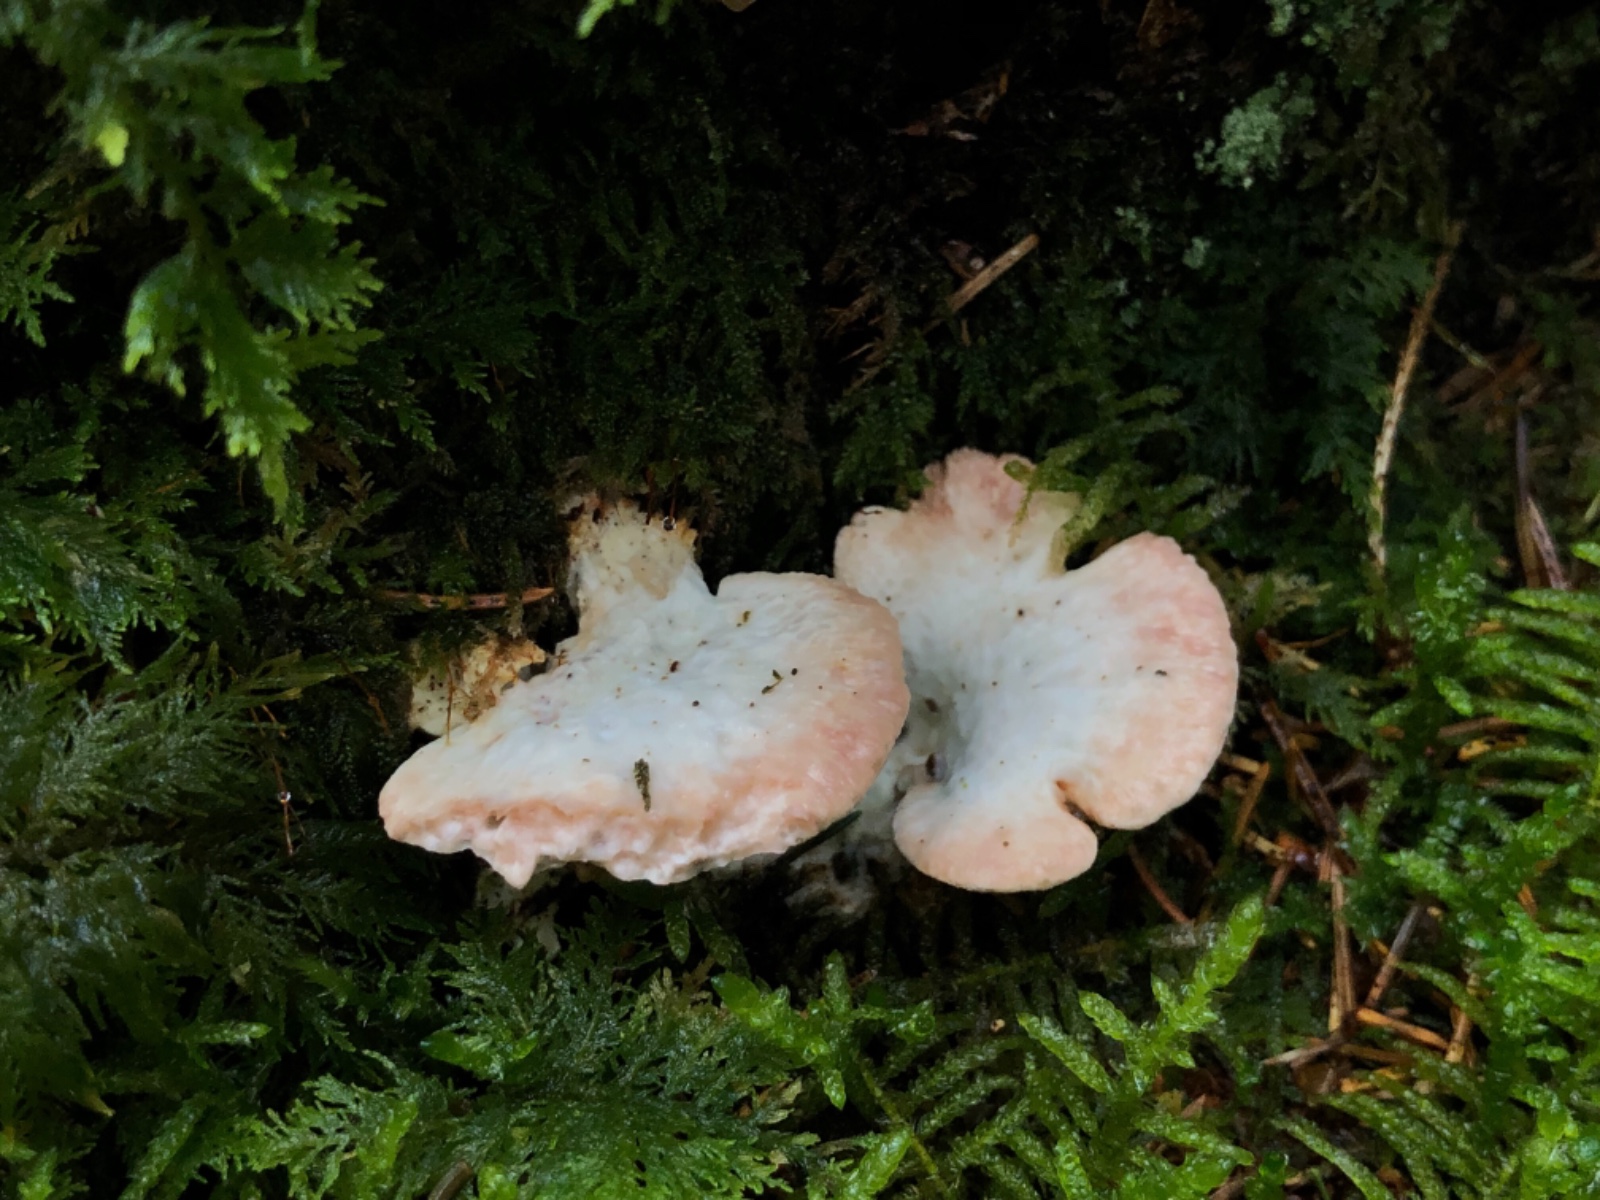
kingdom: Fungi
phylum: Basidiomycota
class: Agaricomycetes
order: Polyporales
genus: Calcipostia
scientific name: Calcipostia guttulata
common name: dråbe-kødporesvamp
